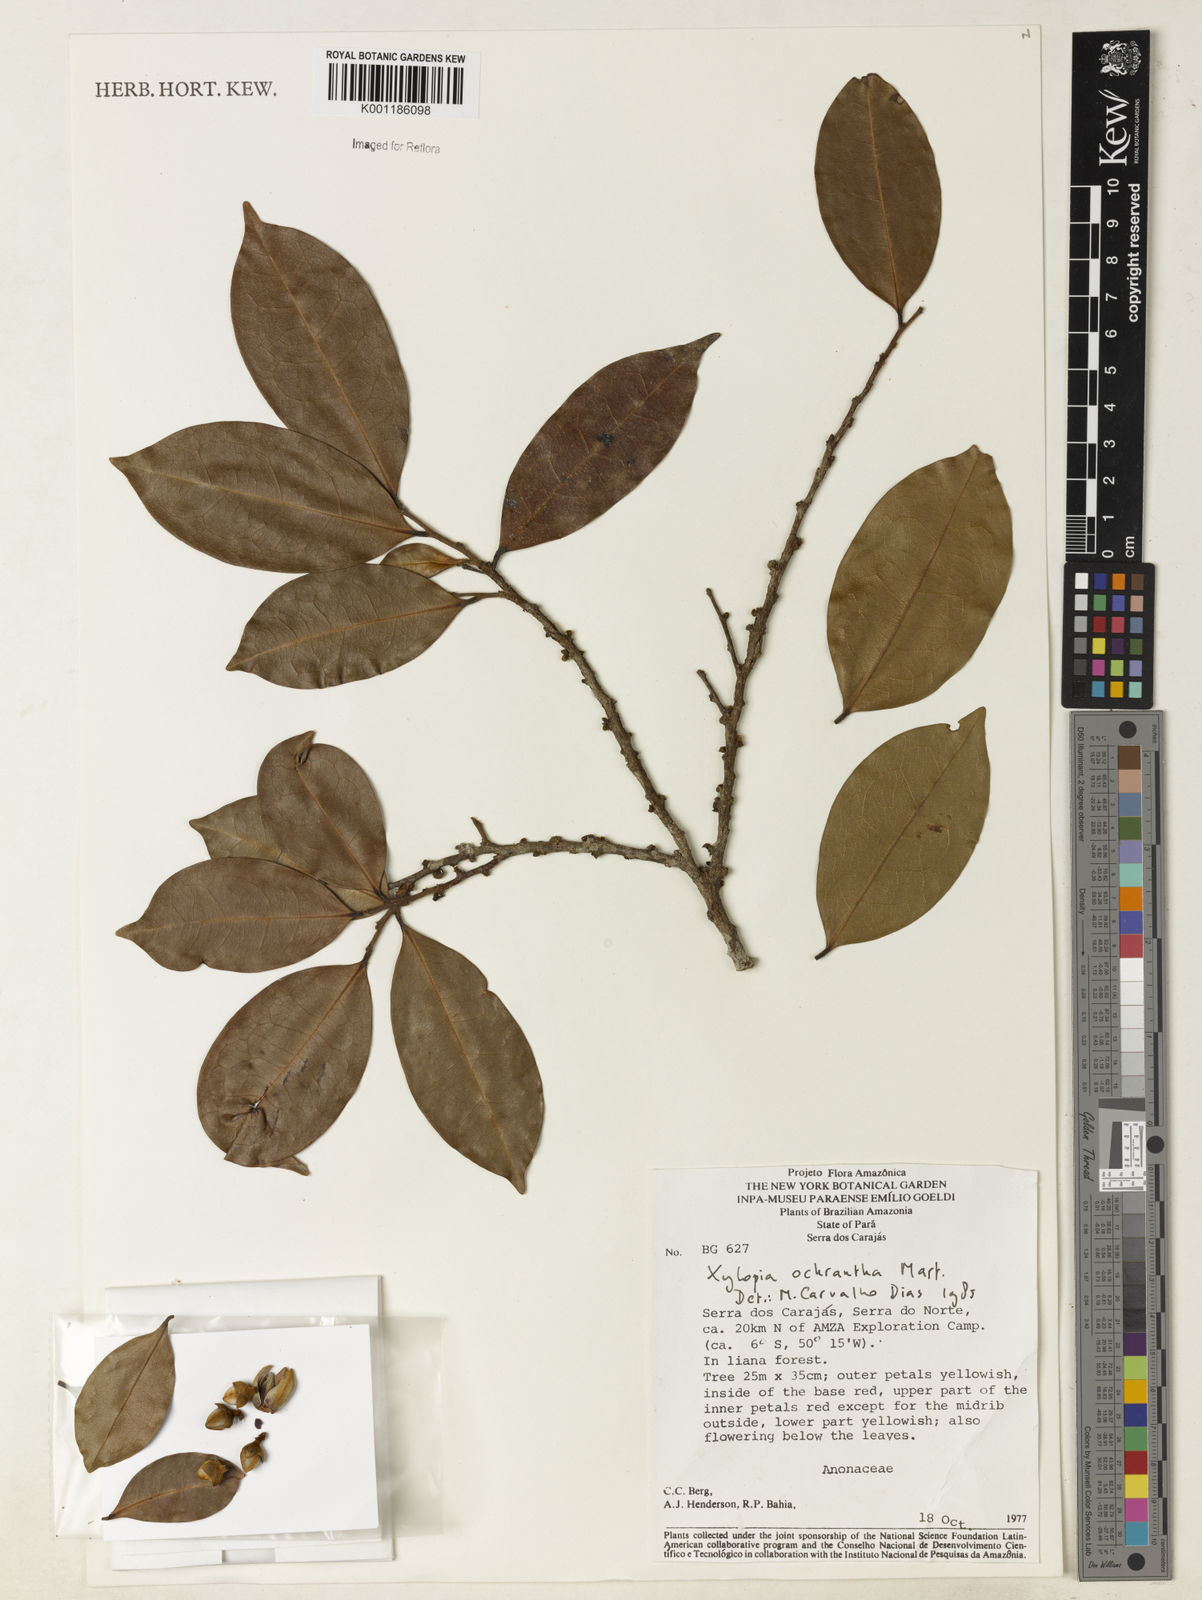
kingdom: Plantae
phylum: Tracheophyta
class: Magnoliopsida
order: Magnoliales
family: Annonaceae
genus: Xylopia
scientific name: Xylopia ochrantha
